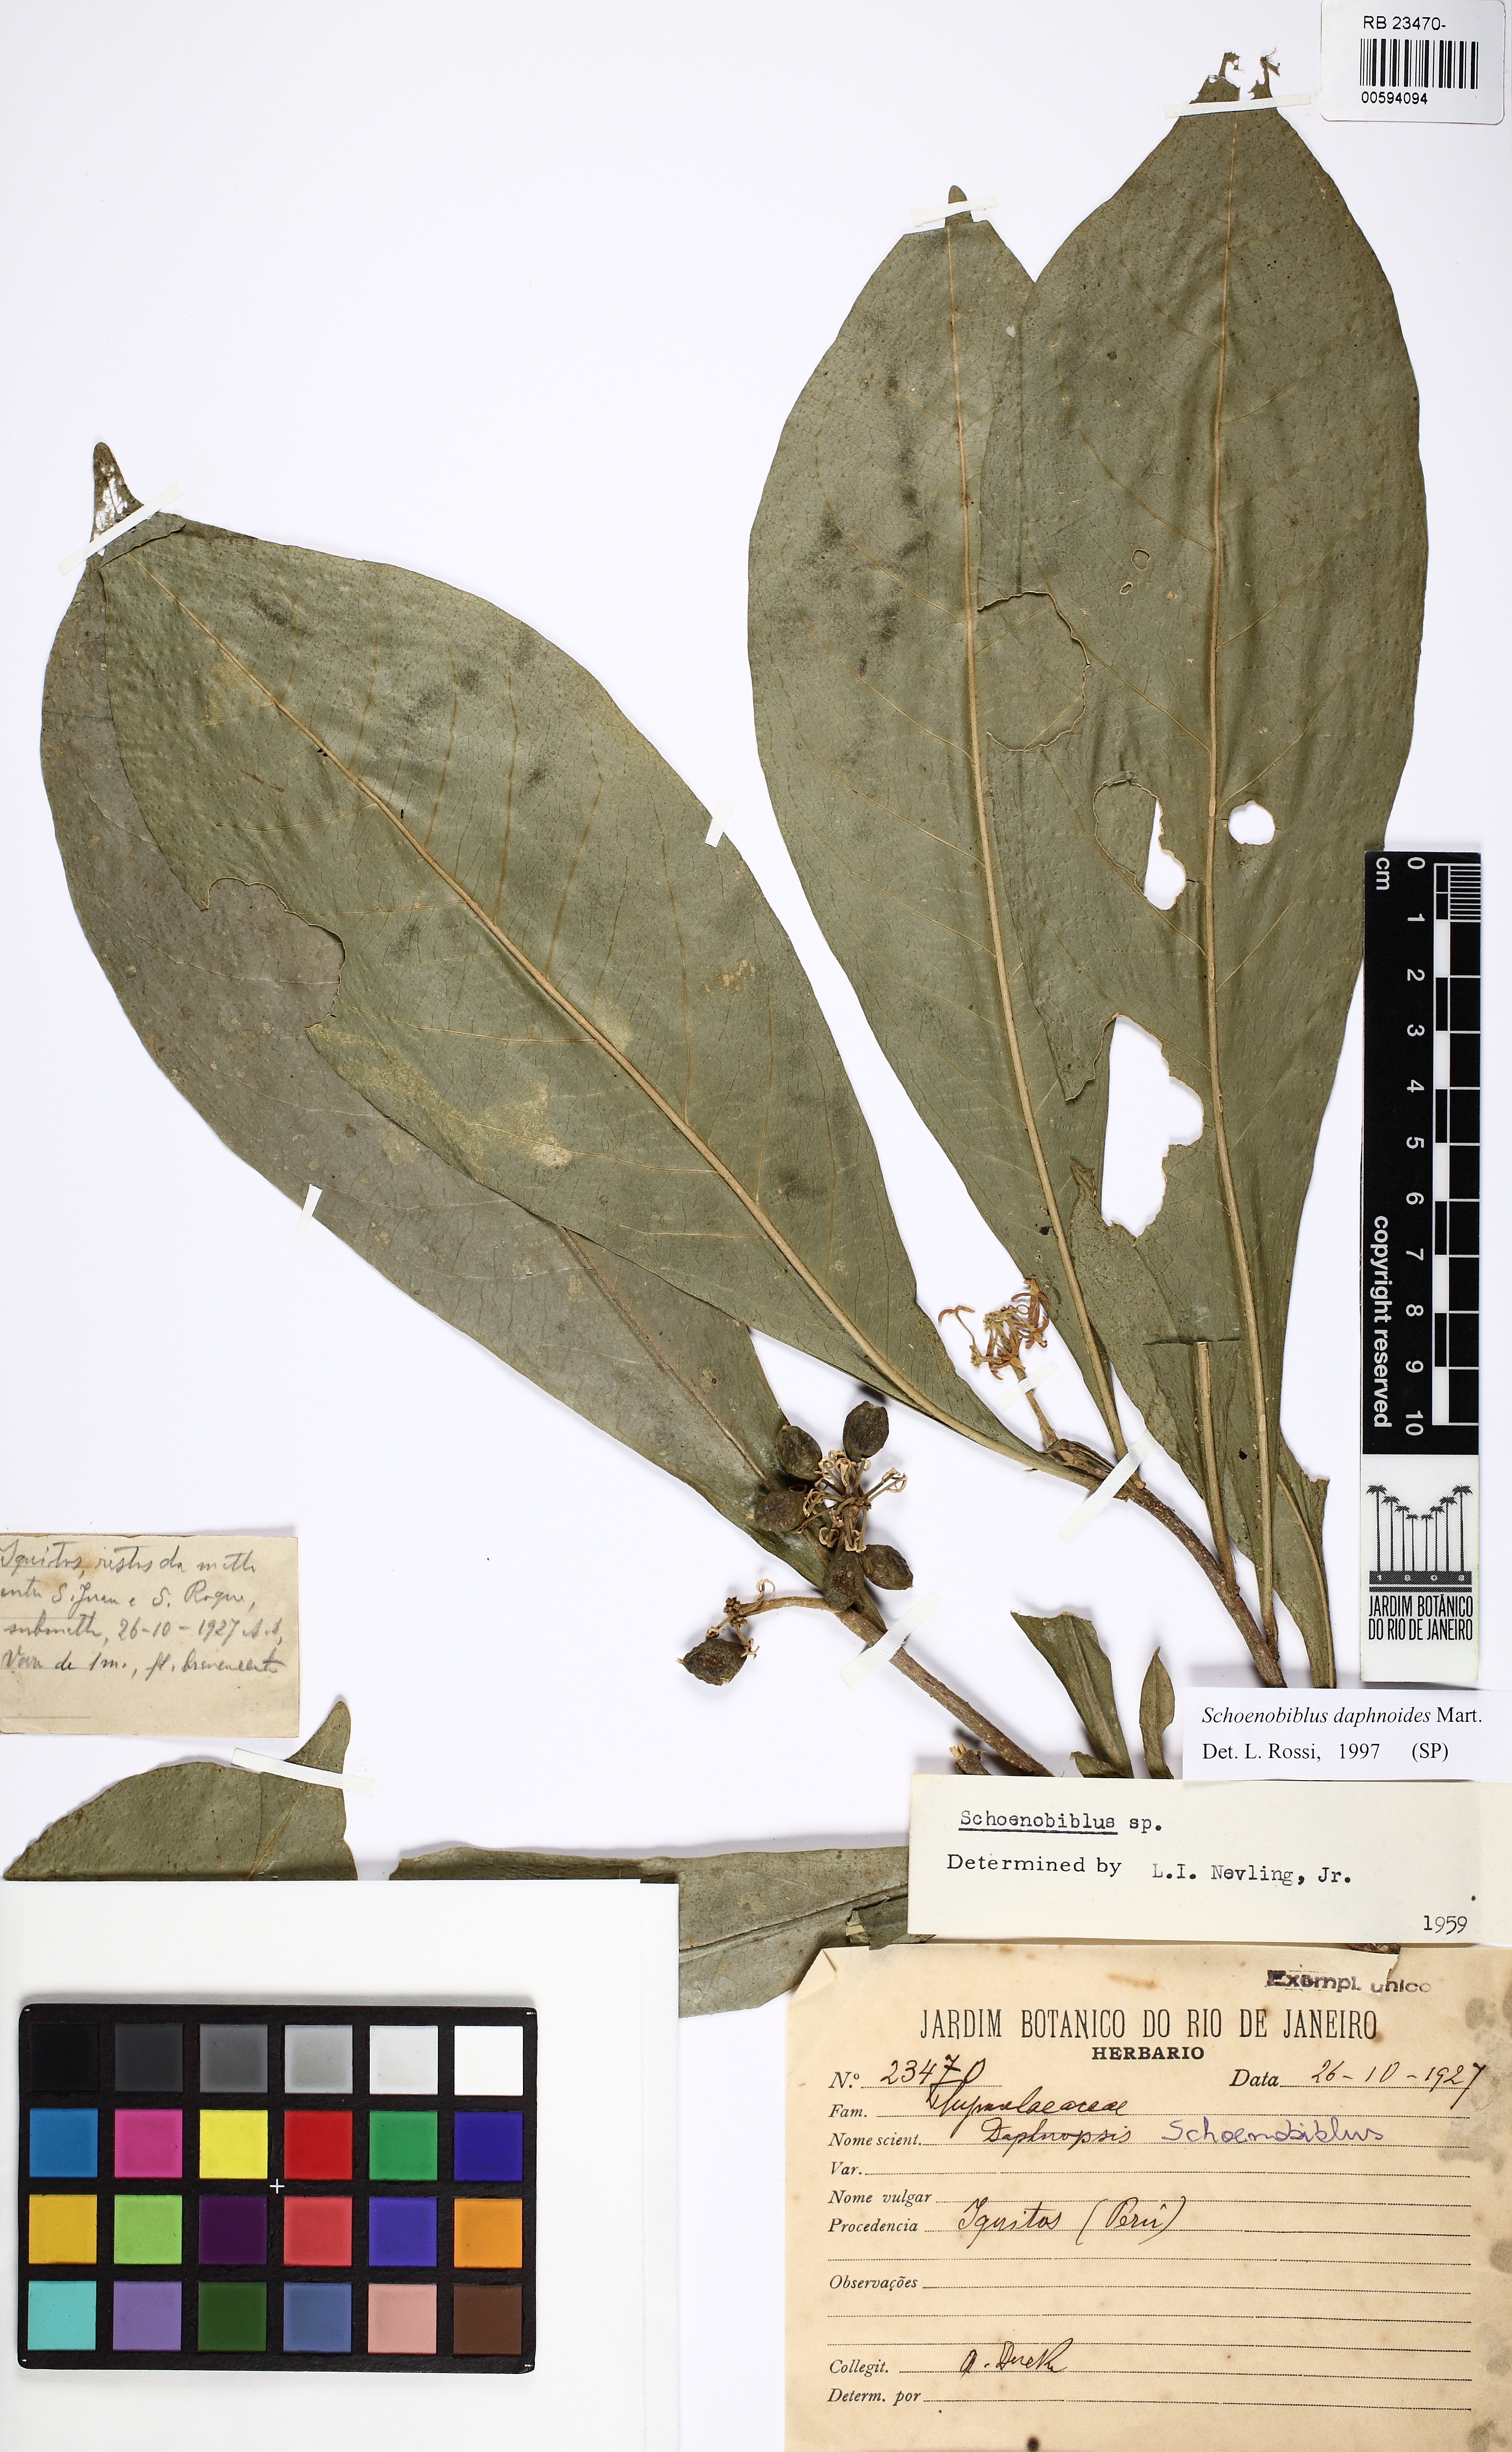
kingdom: Plantae
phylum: Tracheophyta
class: Magnoliopsida
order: Malvales
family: Thymelaeaceae
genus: Schoenobiblus
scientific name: Schoenobiblus daphnoides
